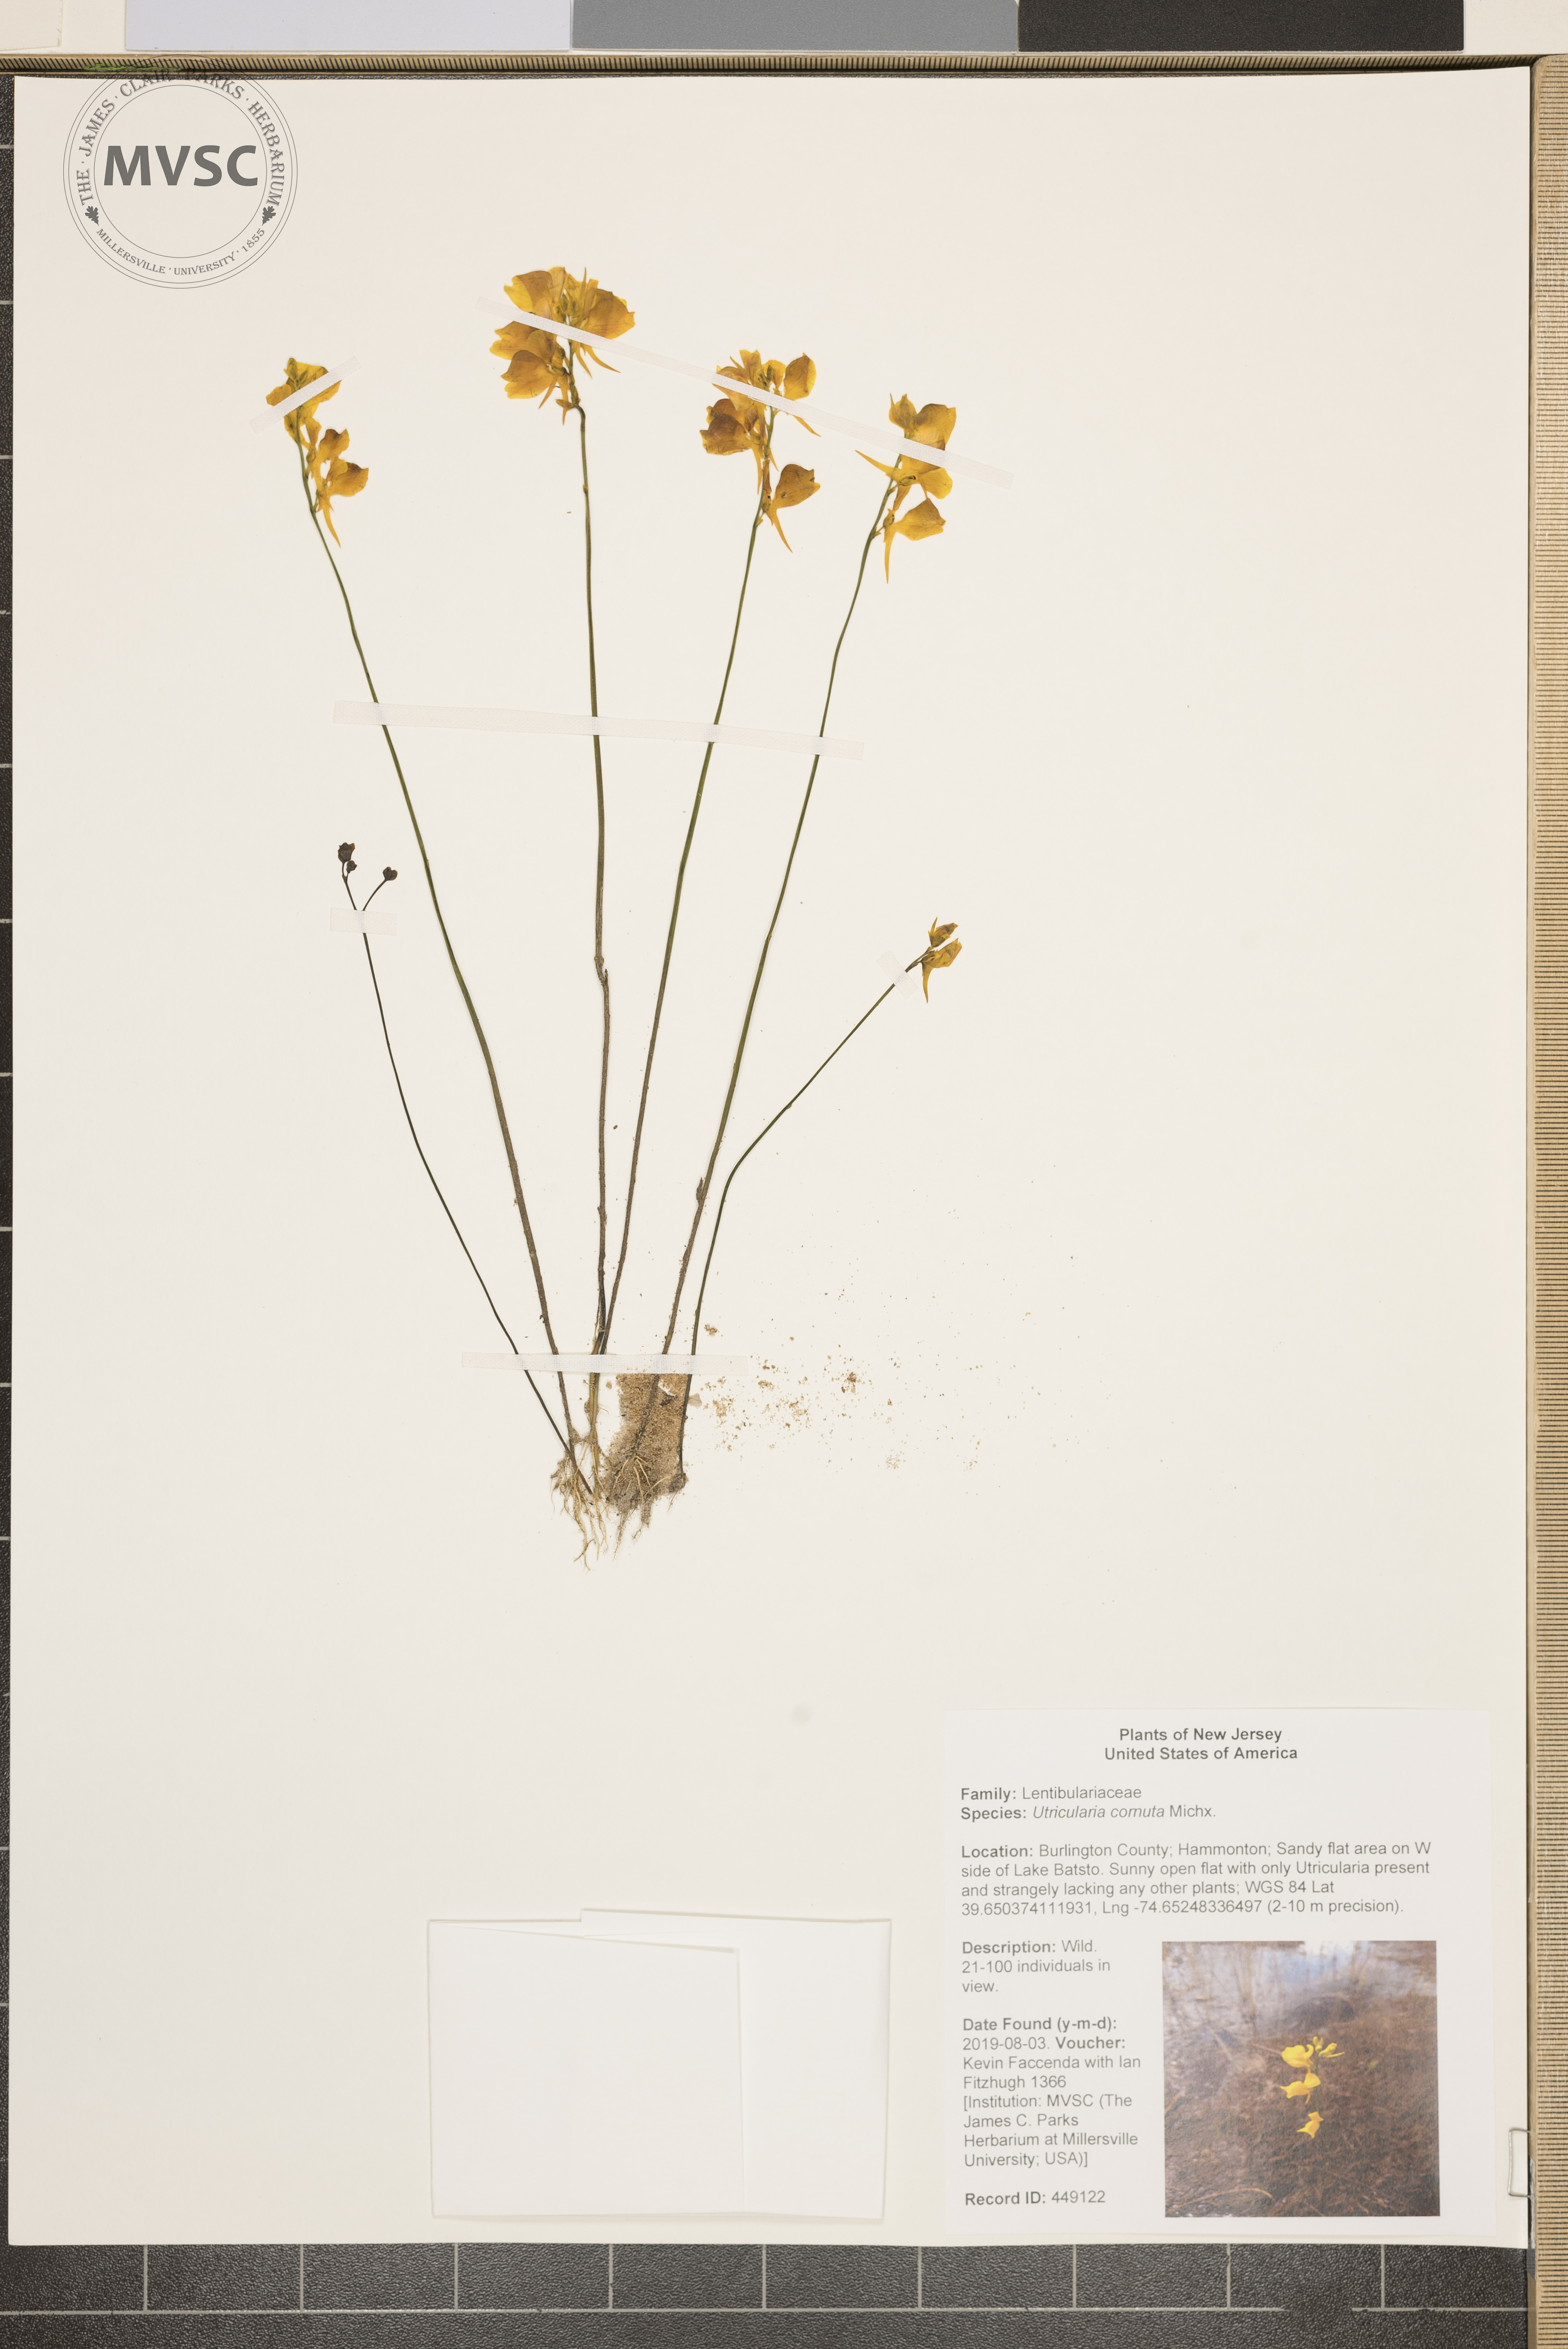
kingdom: Plantae
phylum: Tracheophyta
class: Magnoliopsida
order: Lamiales
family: Lentibulariaceae
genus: Utricularia
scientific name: Utricularia cornuta
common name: Horned bladderwort
